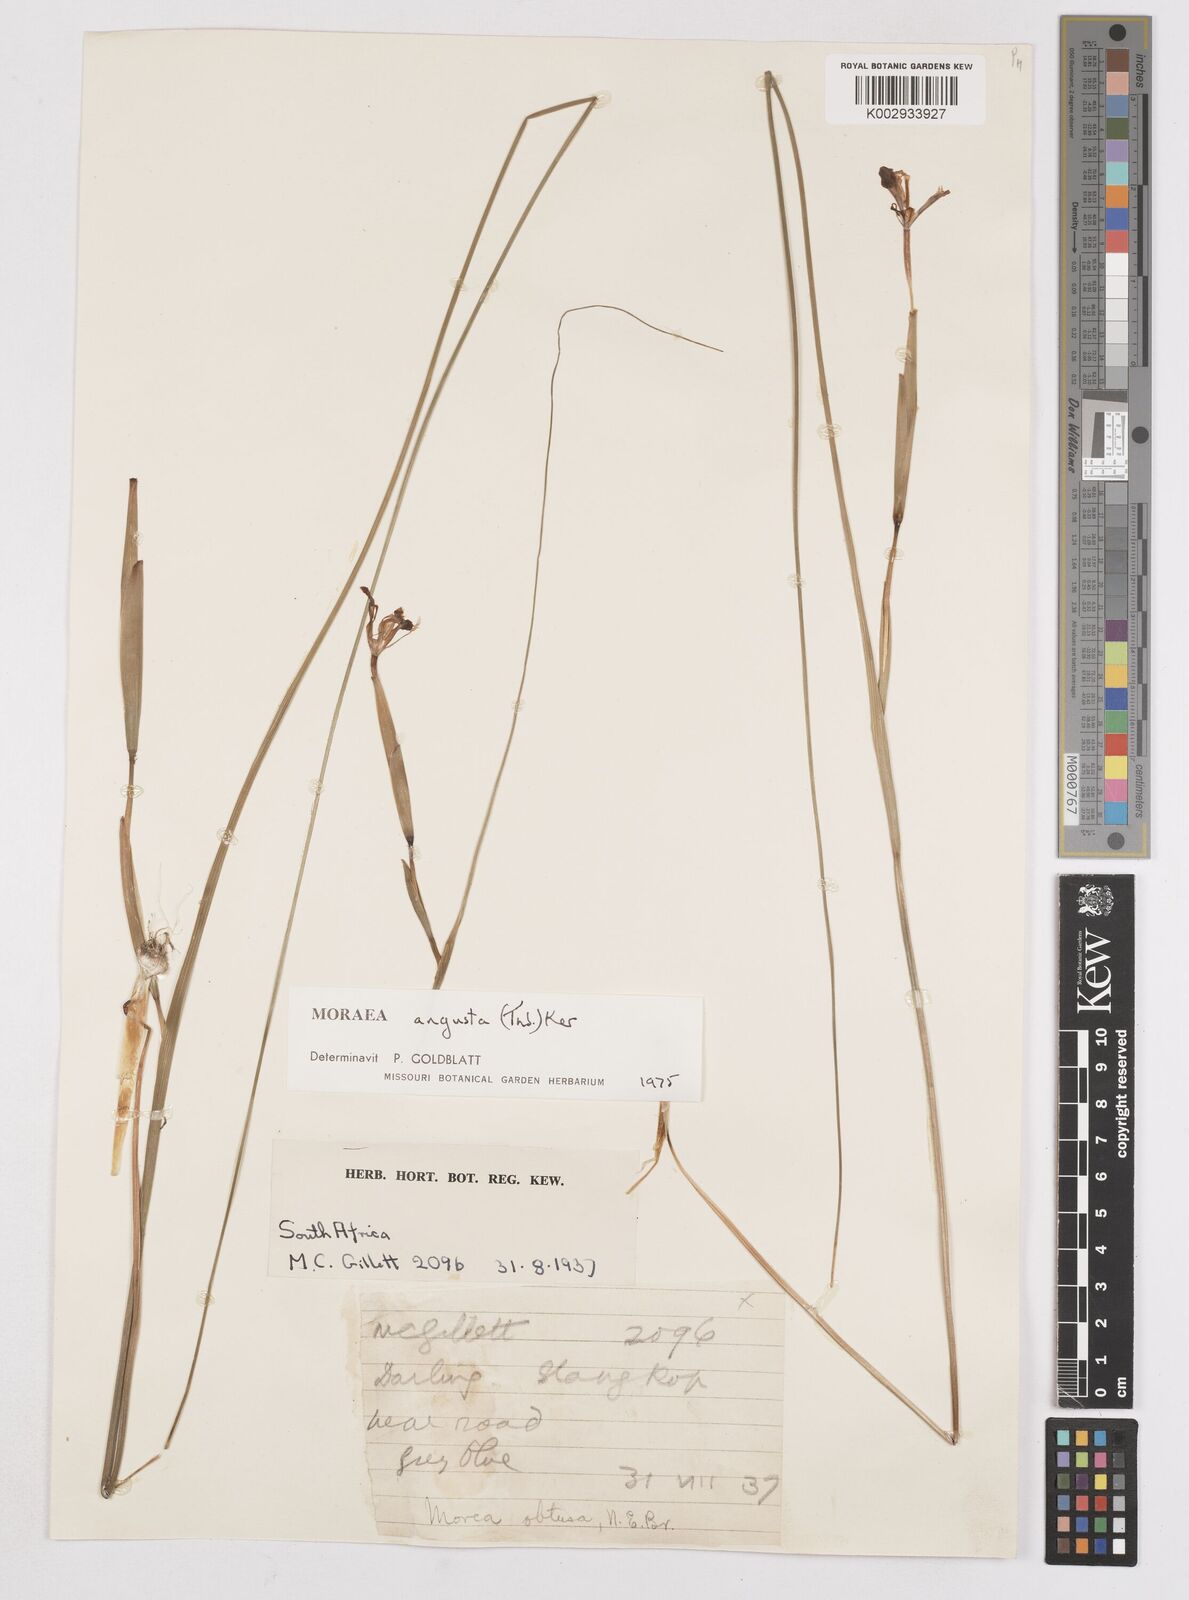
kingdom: Plantae
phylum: Tracheophyta
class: Liliopsida
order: Asparagales
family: Iridaceae
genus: Moraea
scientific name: Moraea angusta
